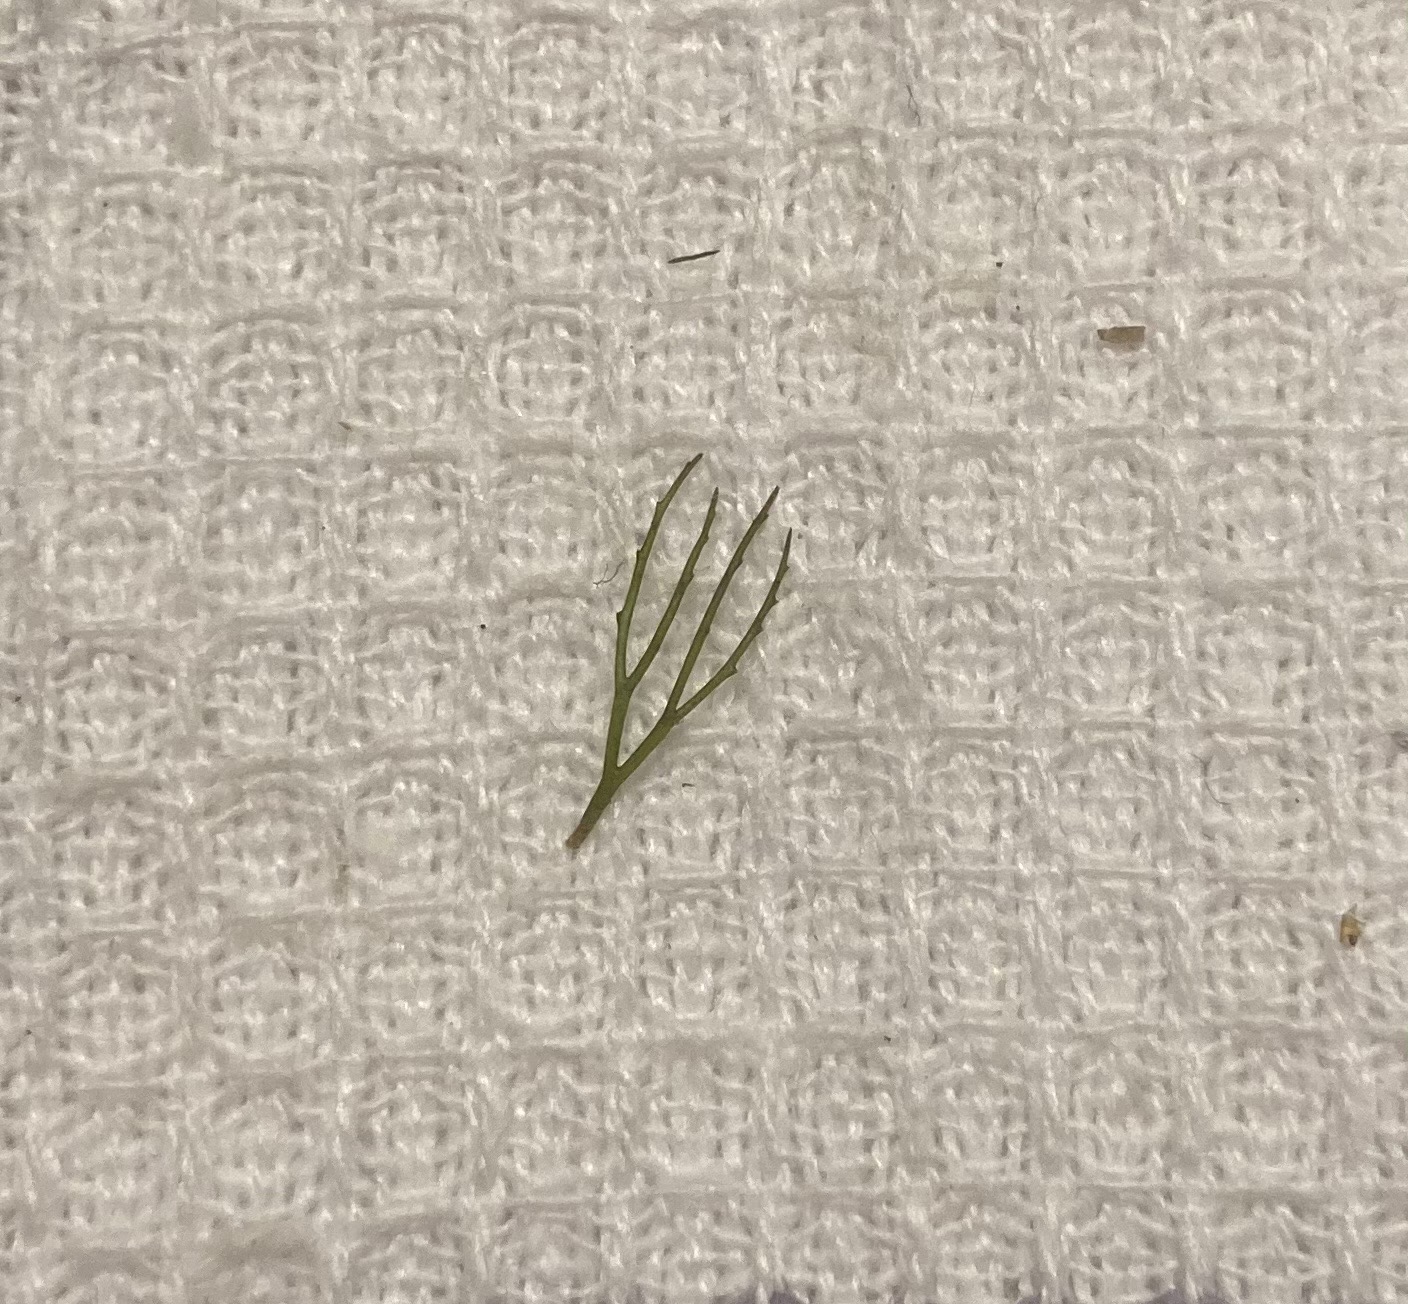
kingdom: Plantae
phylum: Tracheophyta
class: Magnoliopsida
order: Ceratophyllales
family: Ceratophyllaceae
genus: Ceratophyllum
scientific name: Ceratophyllum demersum
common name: Tornfrøet hornblad
